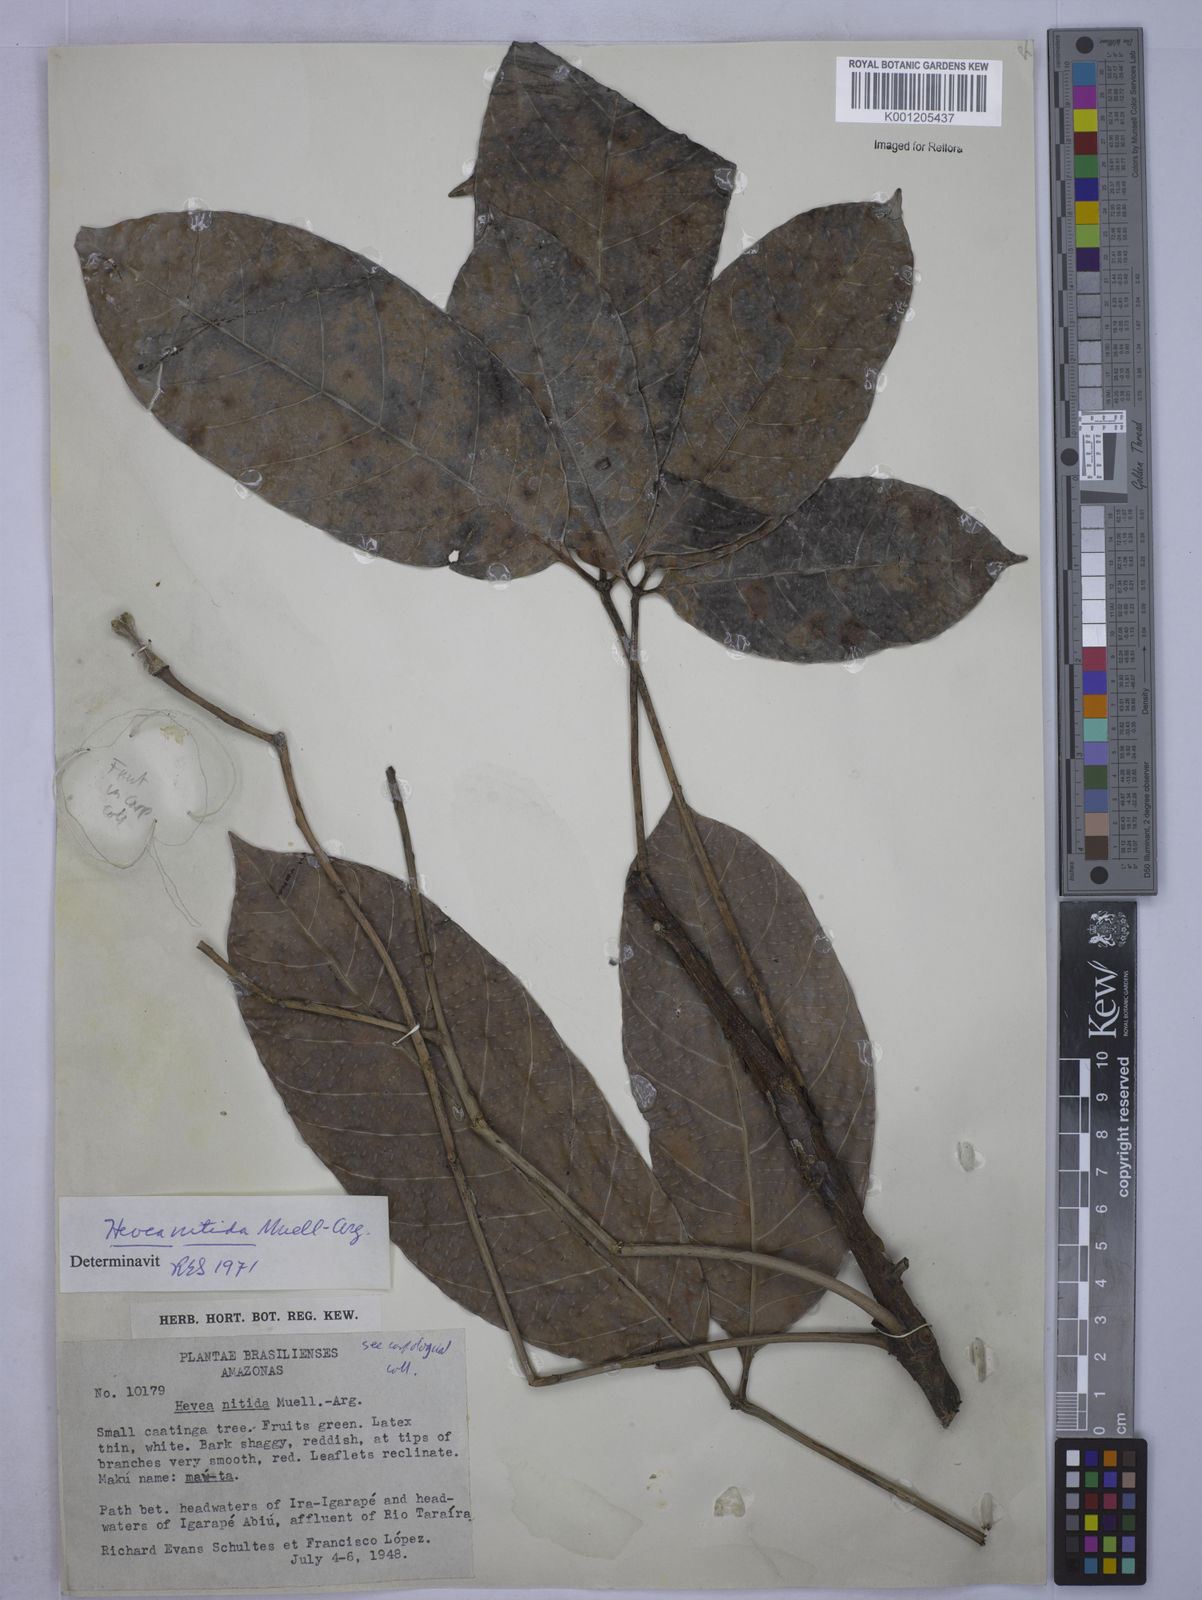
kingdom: Plantae
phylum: Tracheophyta
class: Magnoliopsida
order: Malpighiales
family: Euphorbiaceae
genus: Hevea
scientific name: Hevea
